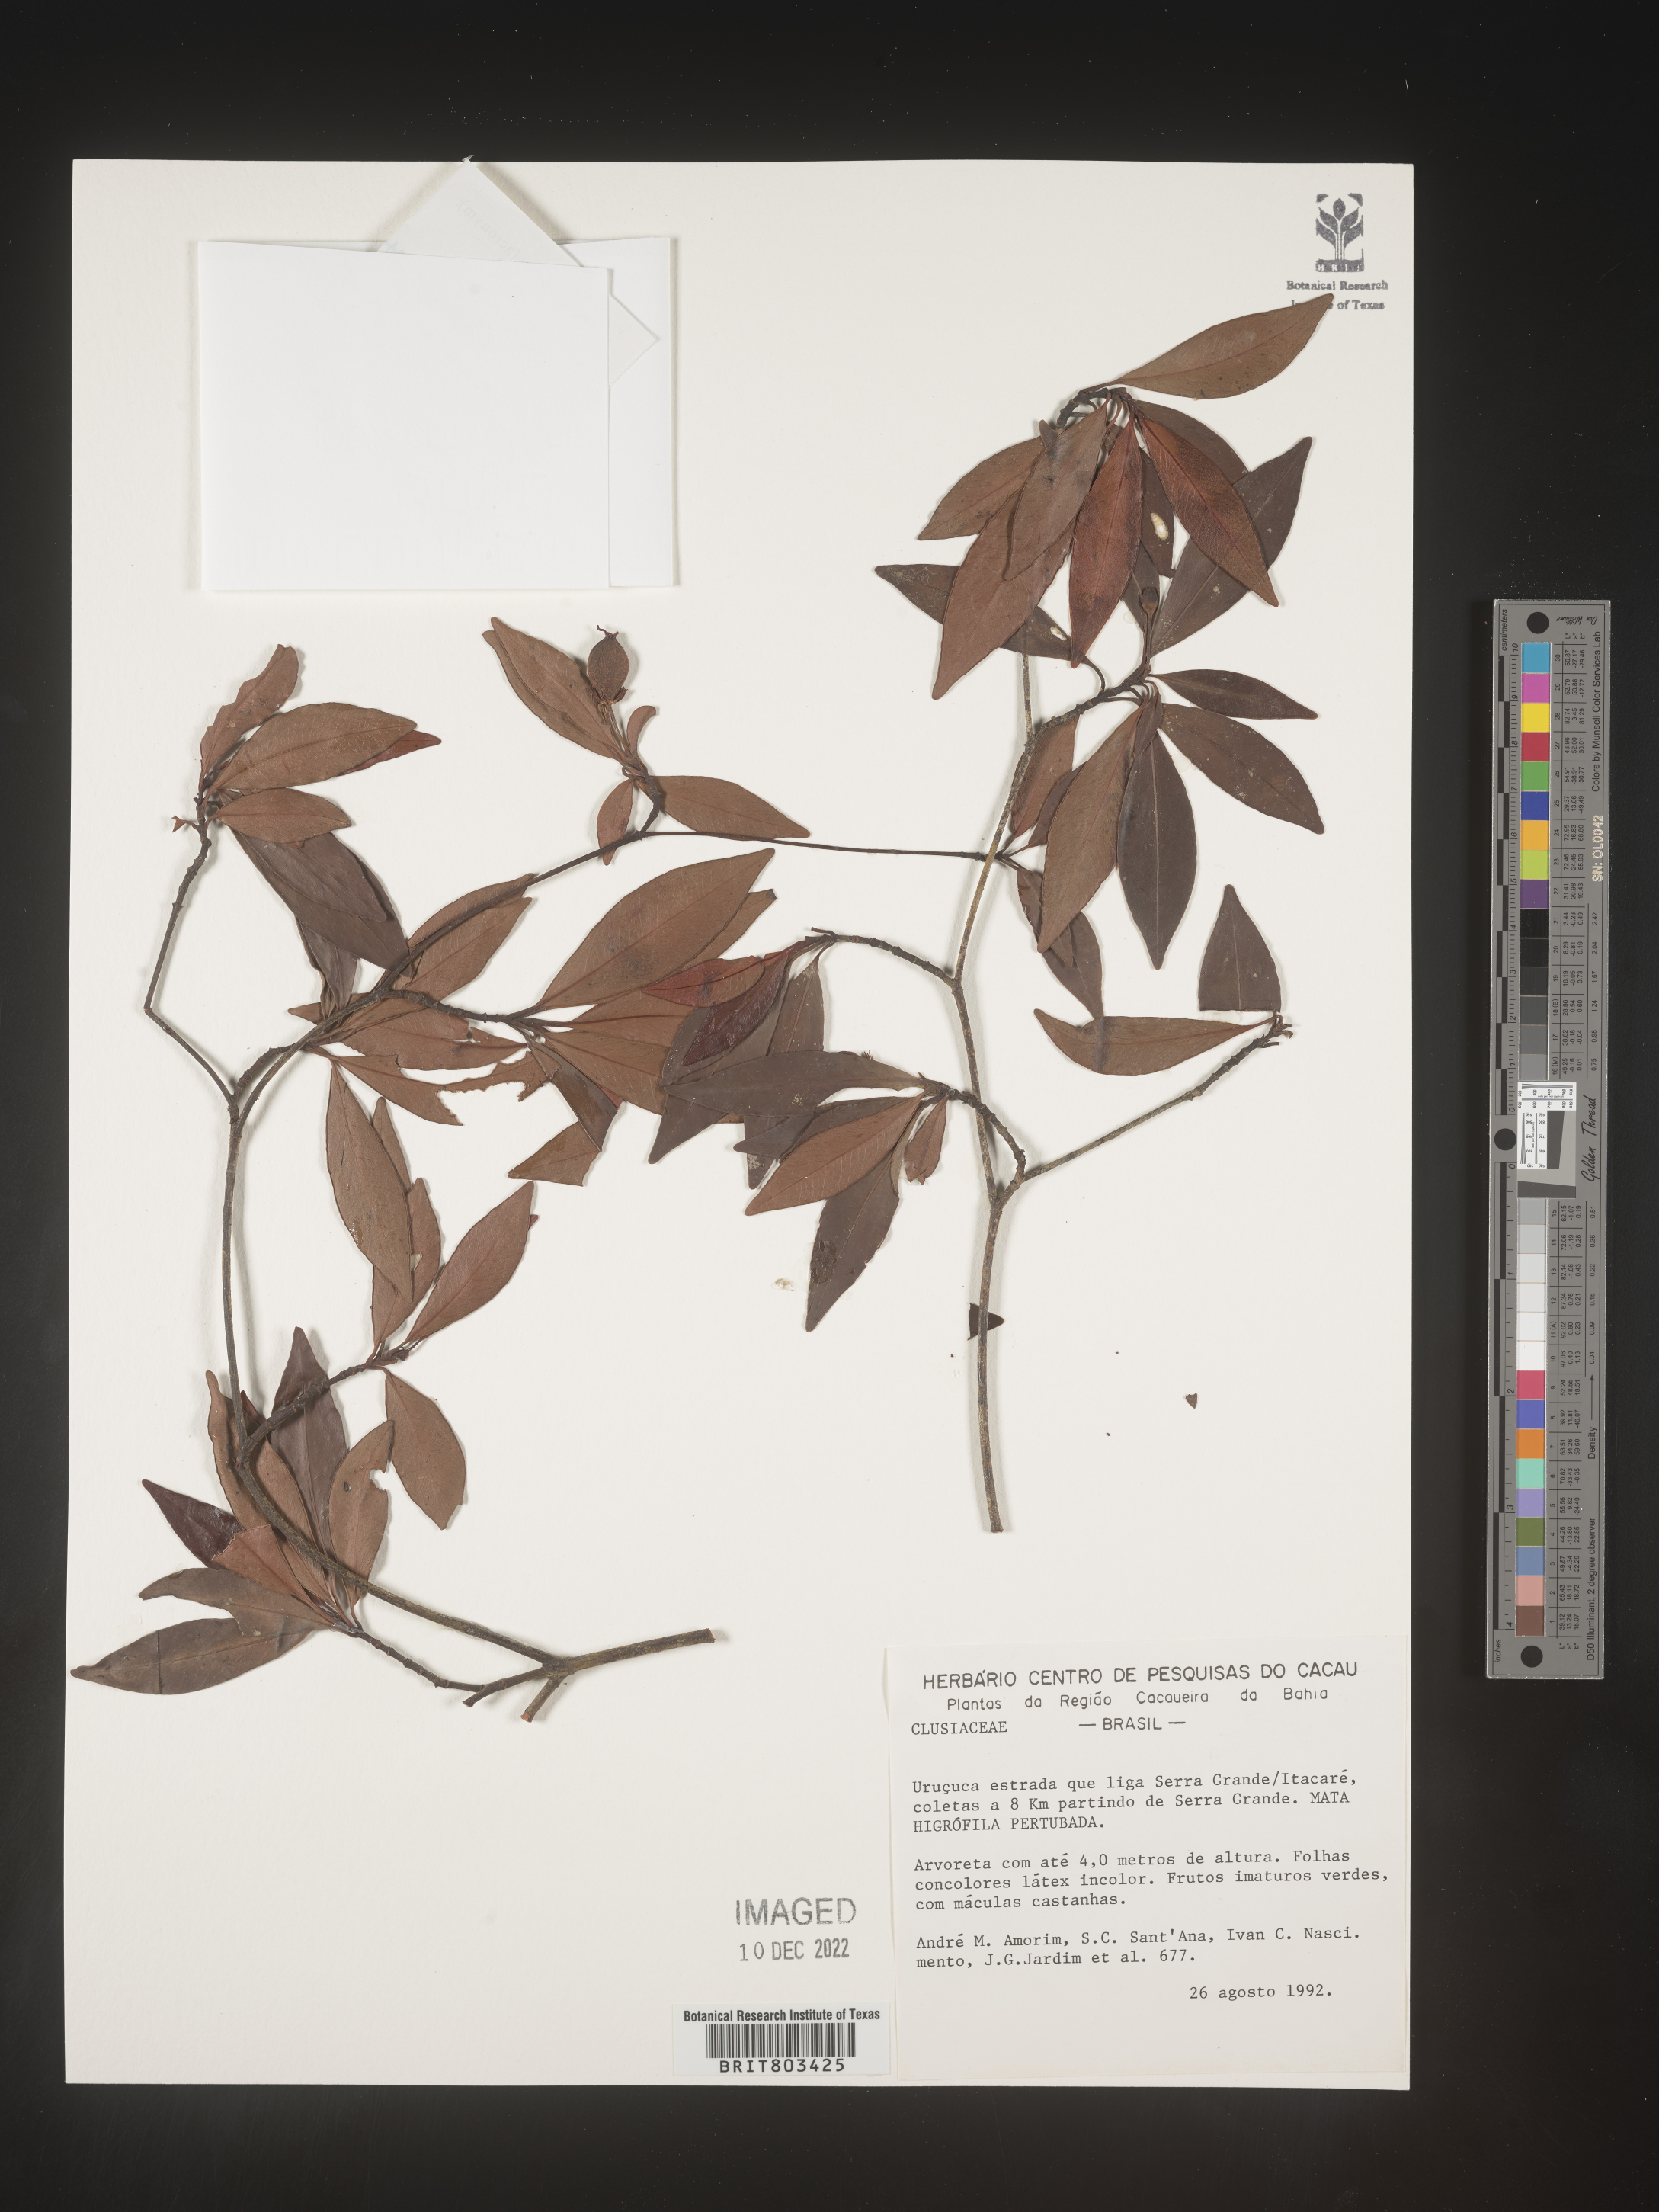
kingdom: Plantae
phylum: Tracheophyta
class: Magnoliopsida
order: Malpighiales
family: Clusiaceae
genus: Tovomita
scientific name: Tovomita
